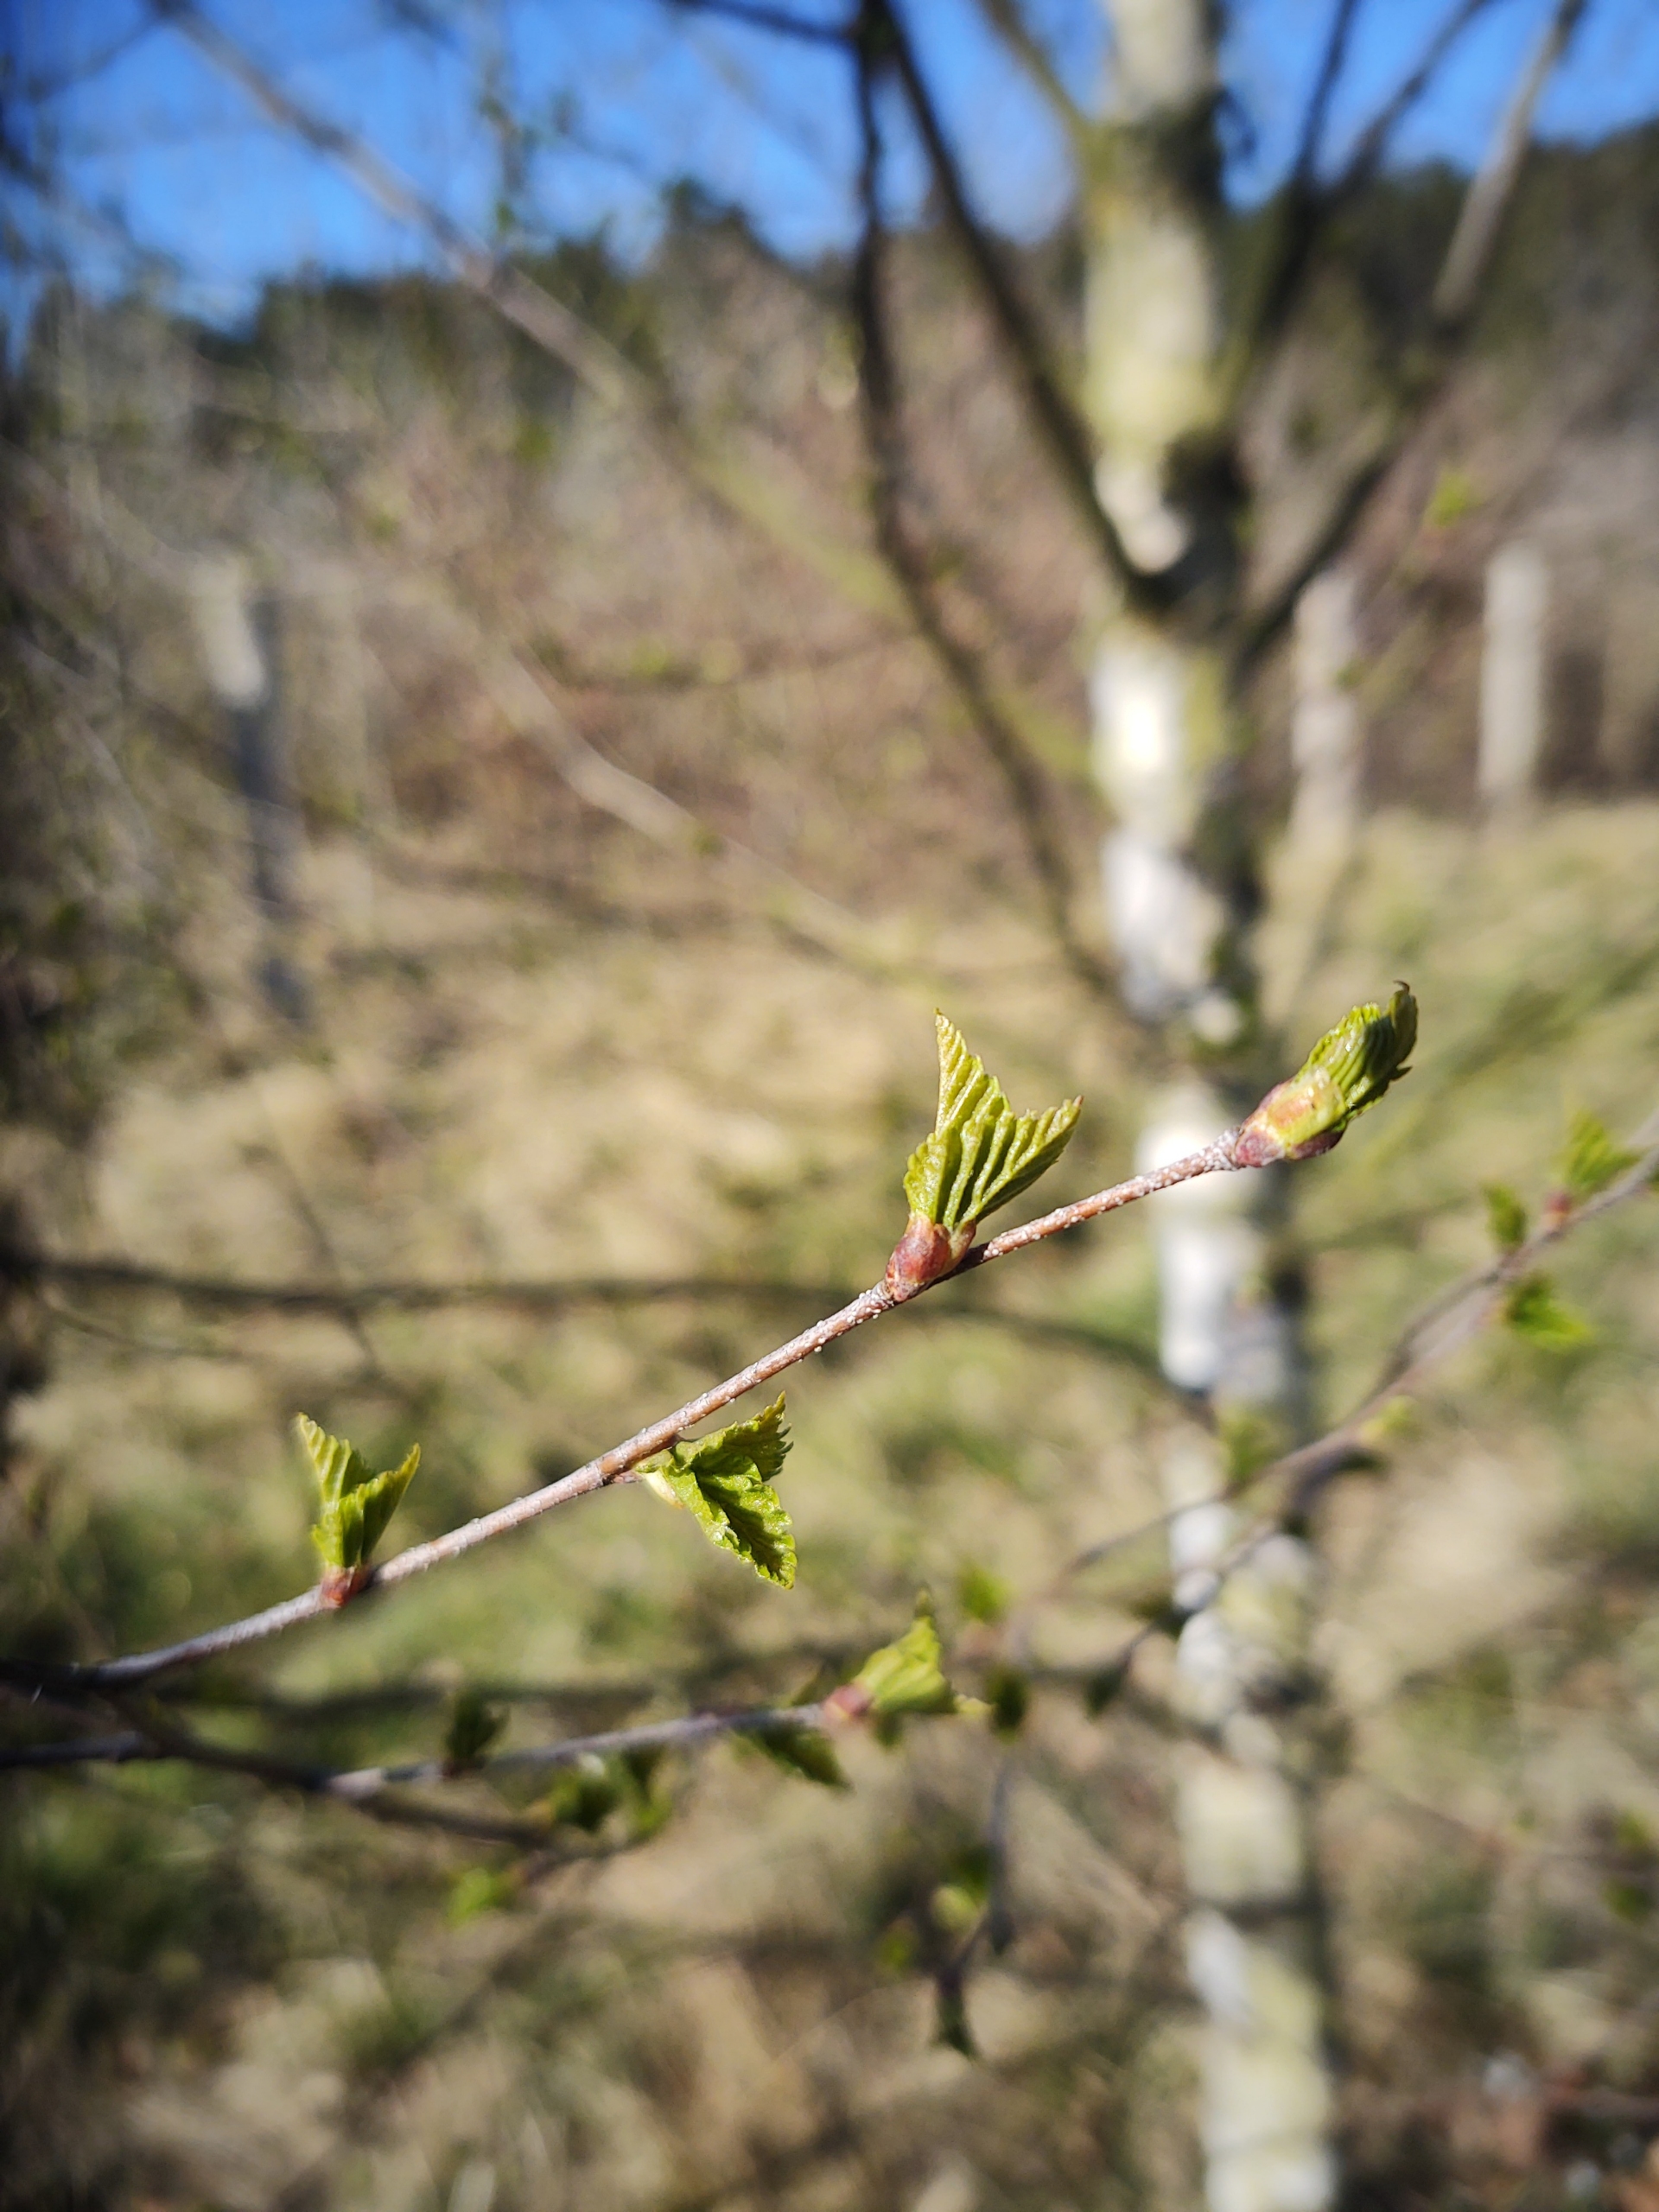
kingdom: Plantae
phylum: Tracheophyta
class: Magnoliopsida
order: Fagales
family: Betulaceae
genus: Betula
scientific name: Betula pendula
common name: Vorte-birk
